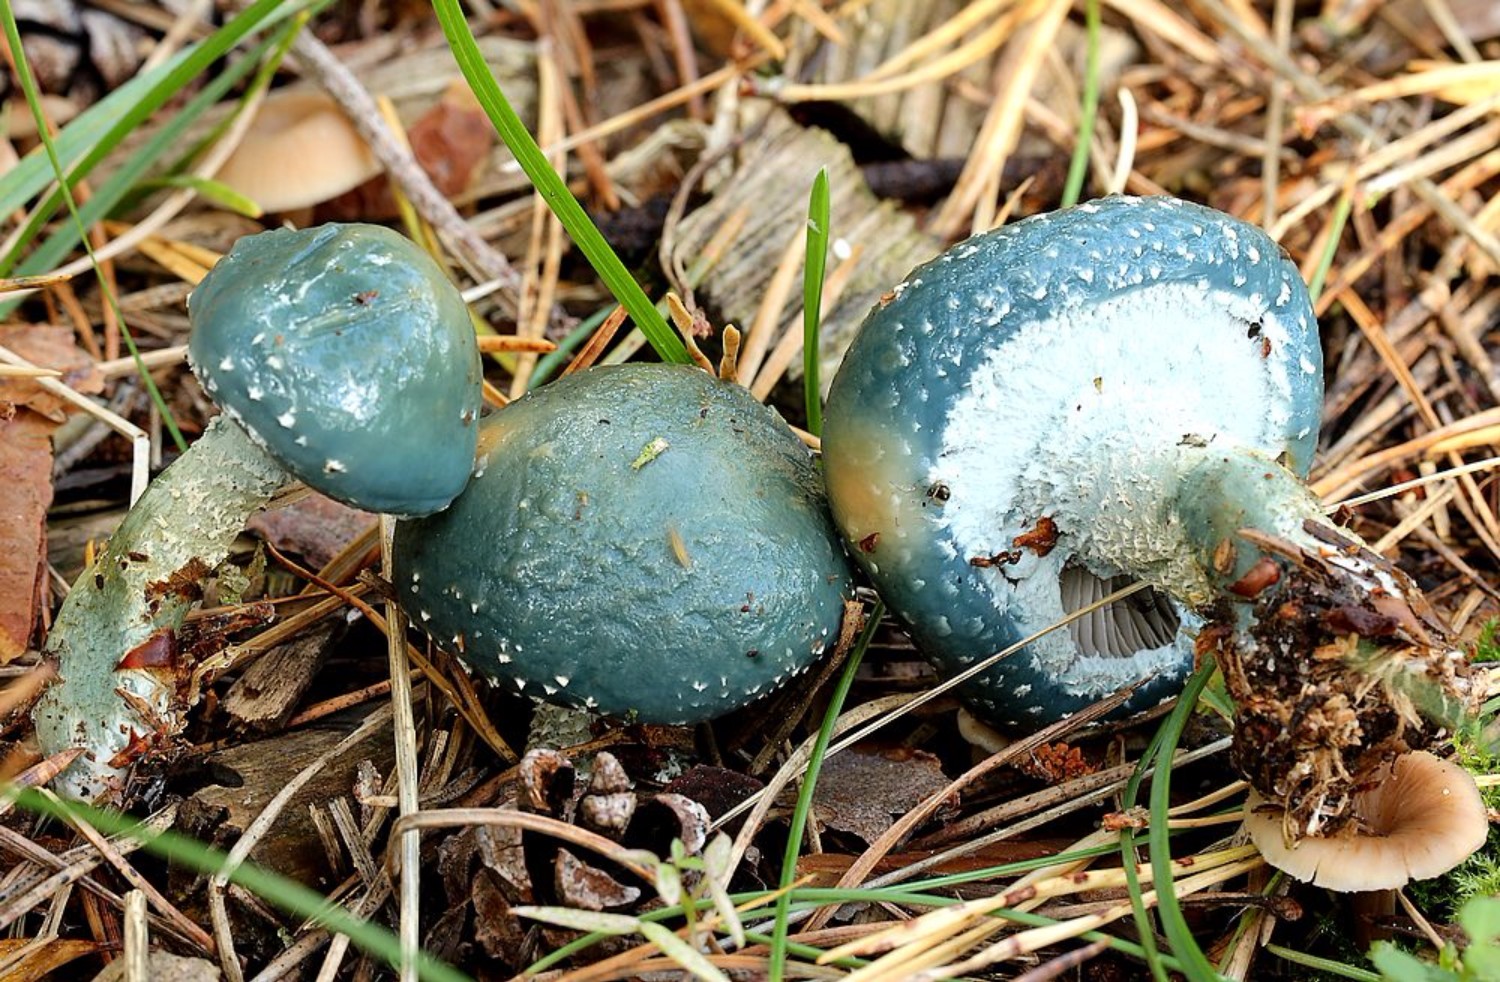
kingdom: Fungi
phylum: Basidiomycota
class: Agaricomycetes
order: Agaricales
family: Strophariaceae
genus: Stropharia
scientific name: Stropharia aeruginosa
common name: spanskgrøn bredblad
